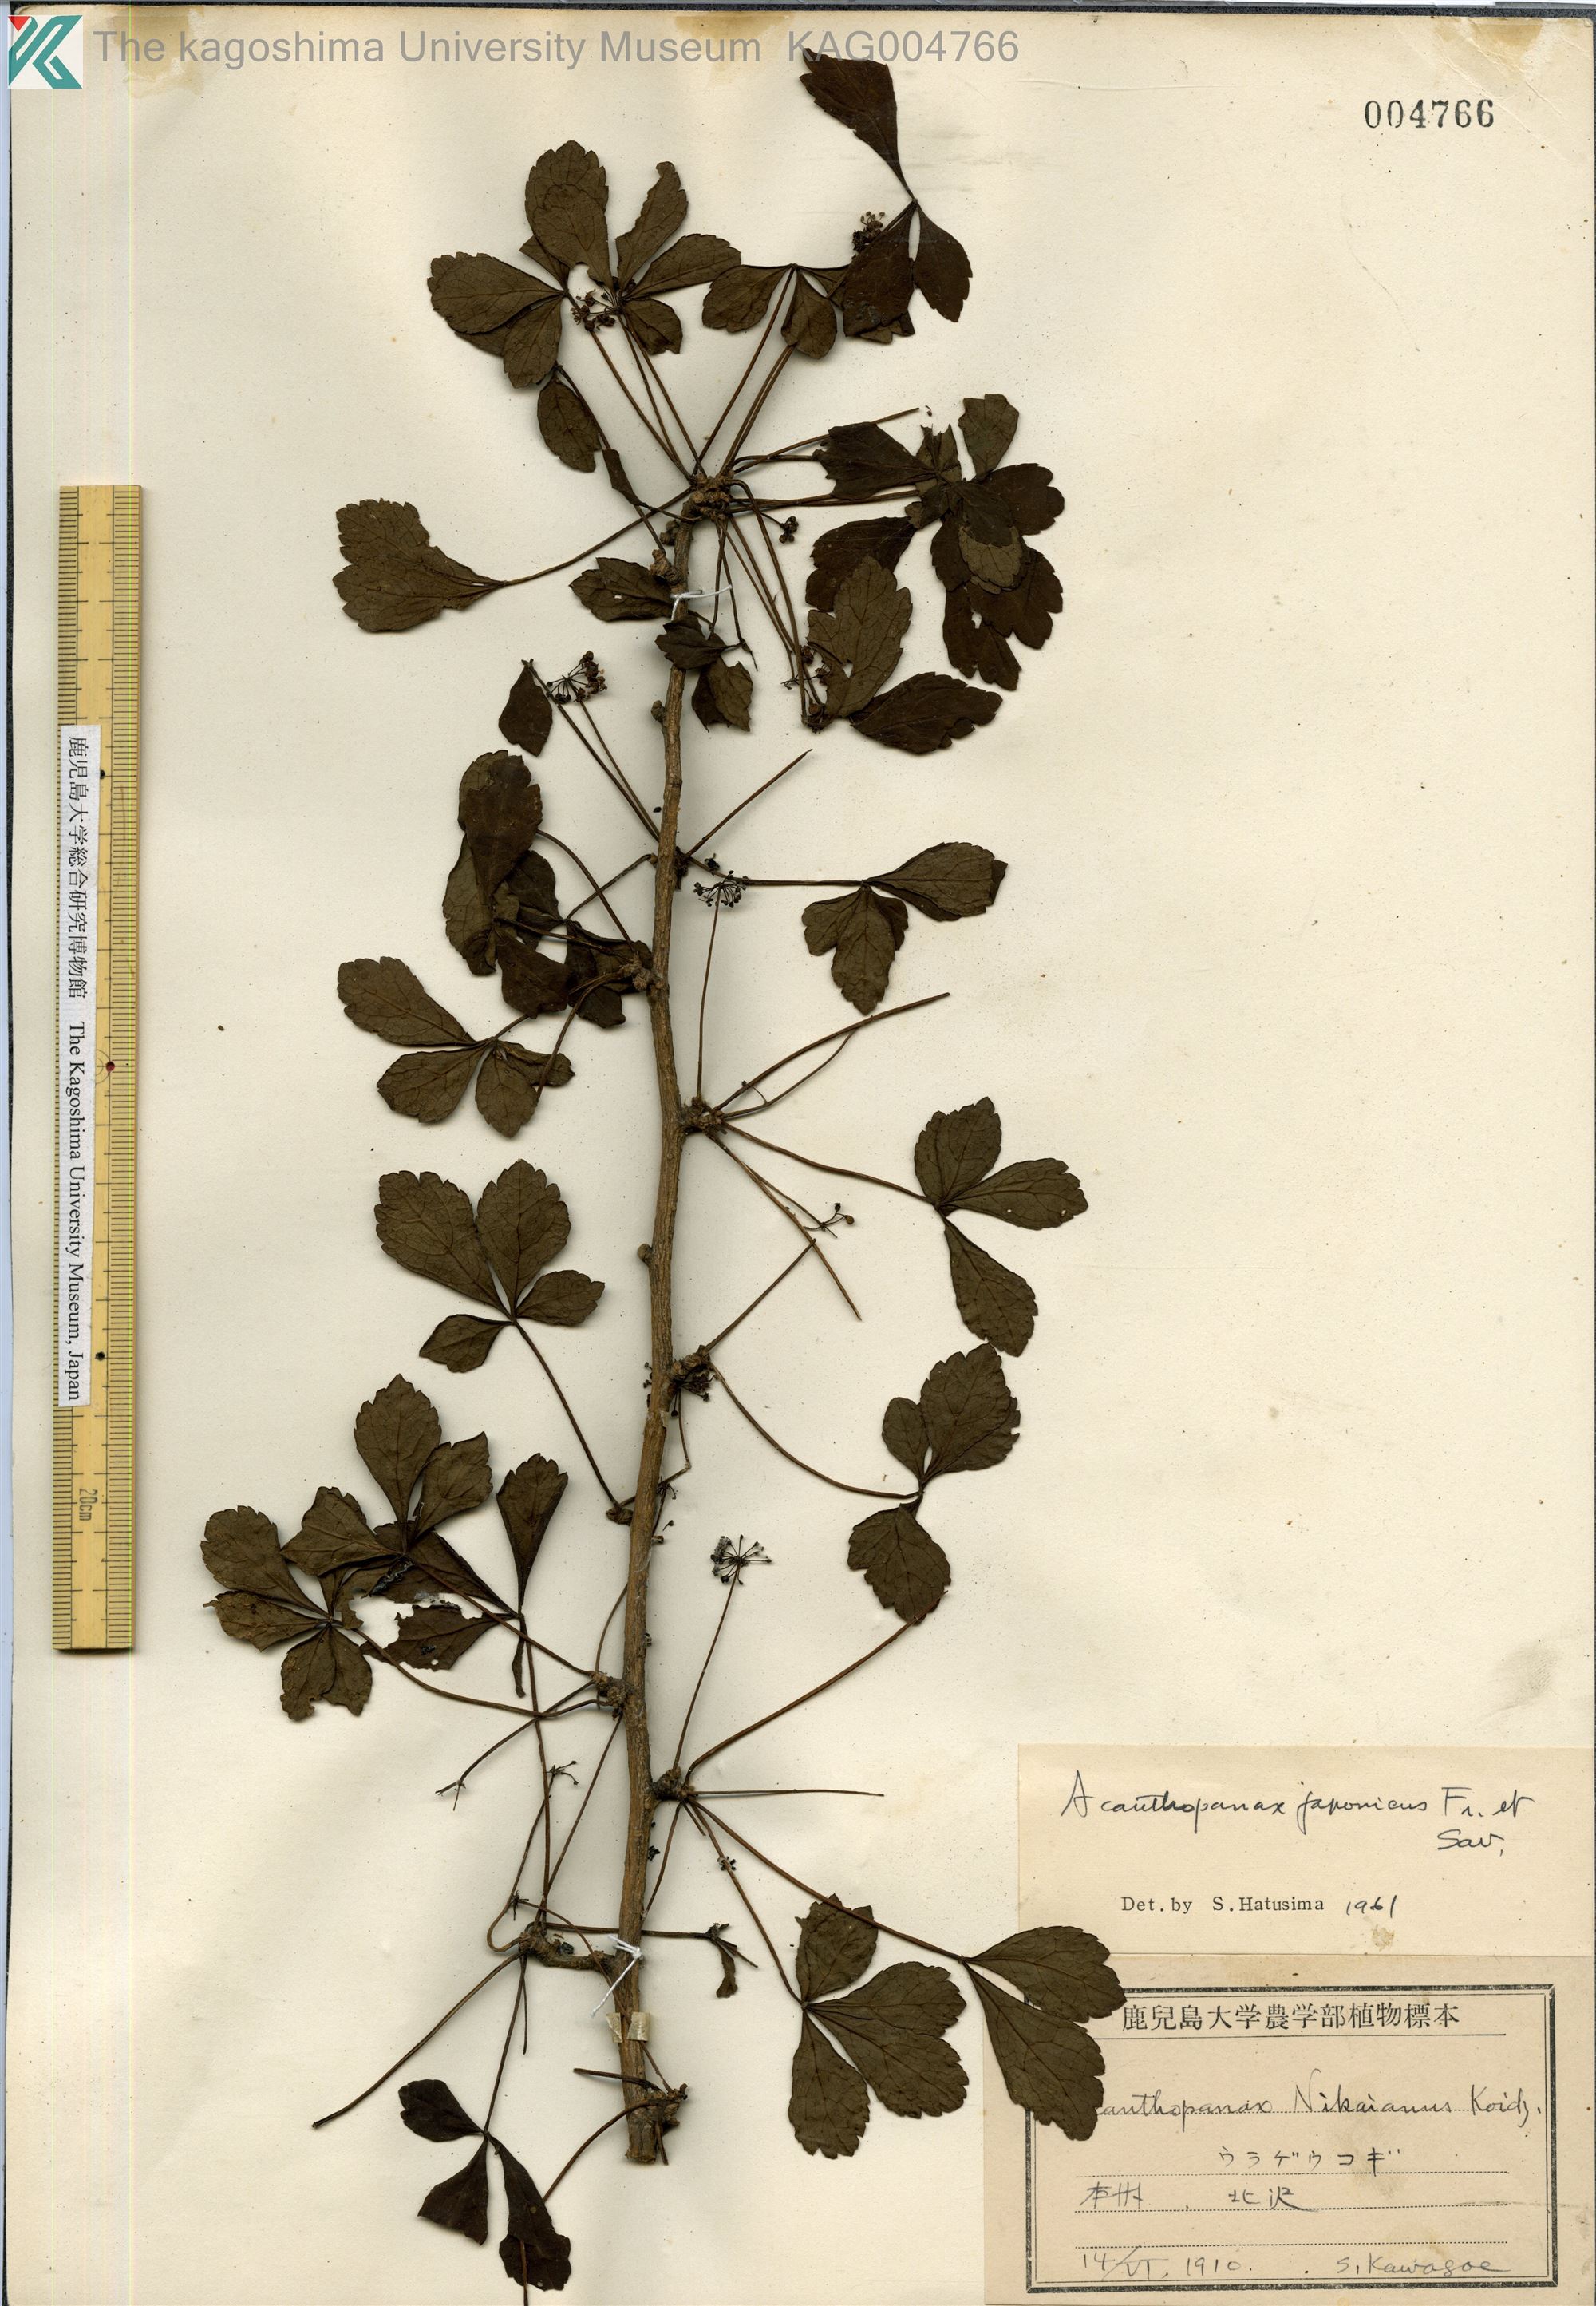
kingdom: Plantae
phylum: Tracheophyta
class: Magnoliopsida
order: Apiales
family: Araliaceae
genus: Eleutherococcus
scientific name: Eleutherococcus japonicus
